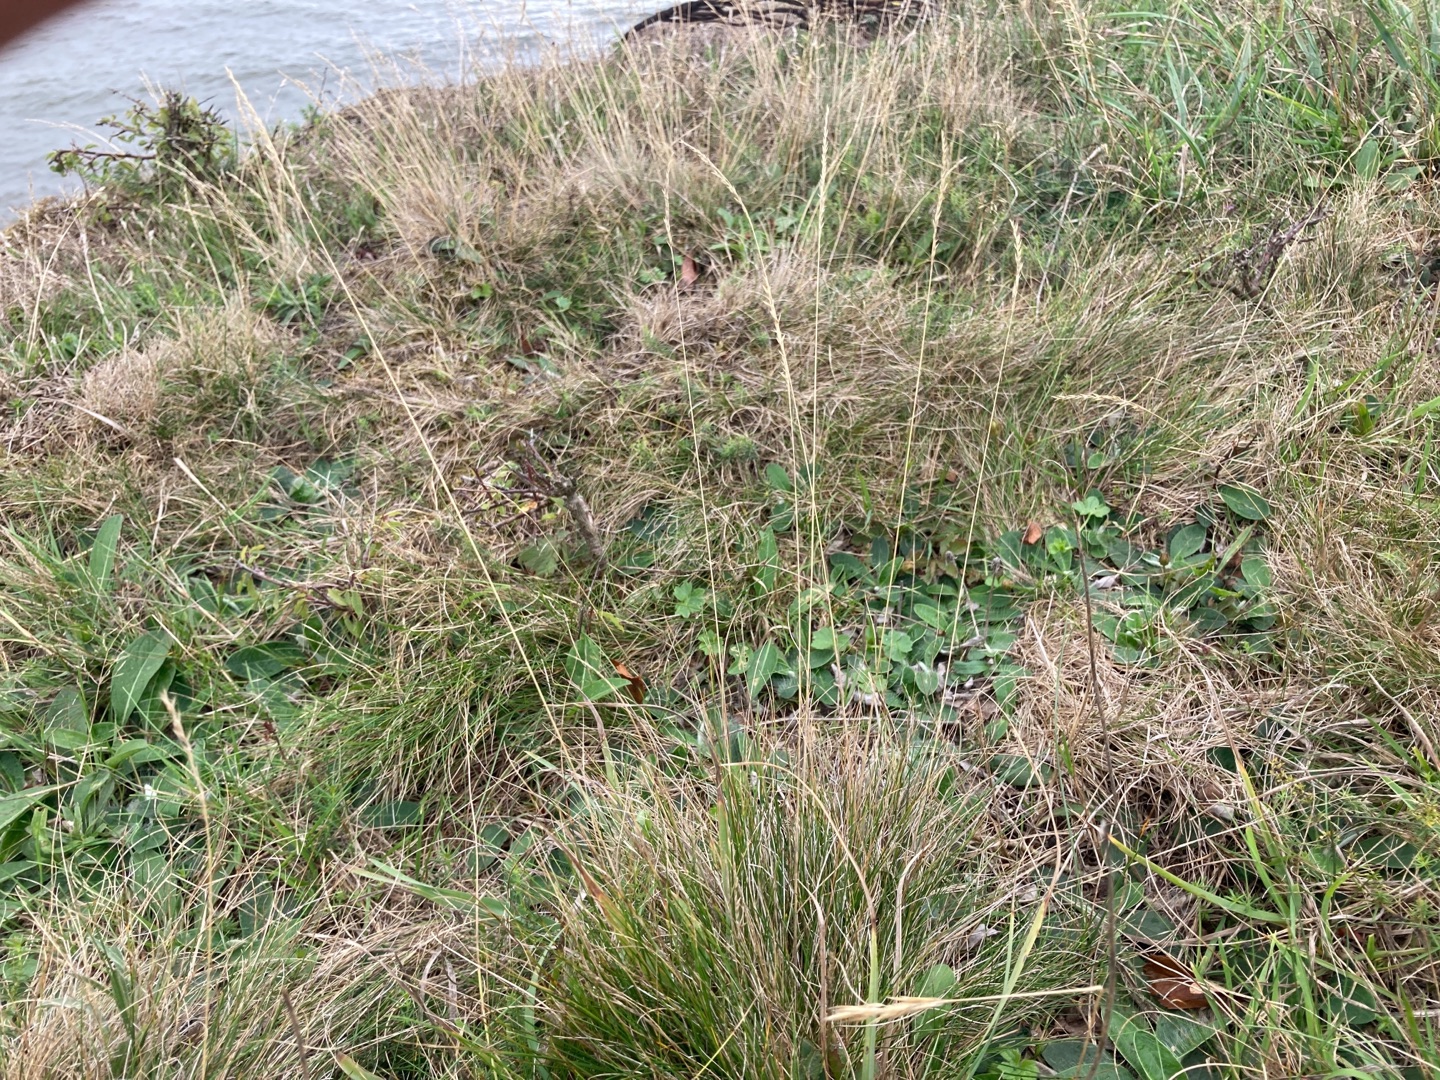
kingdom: Plantae
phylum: Tracheophyta
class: Liliopsida
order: Poales
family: Poaceae
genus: Festuca
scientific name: Festuca ovina
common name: Fåre-svingel
